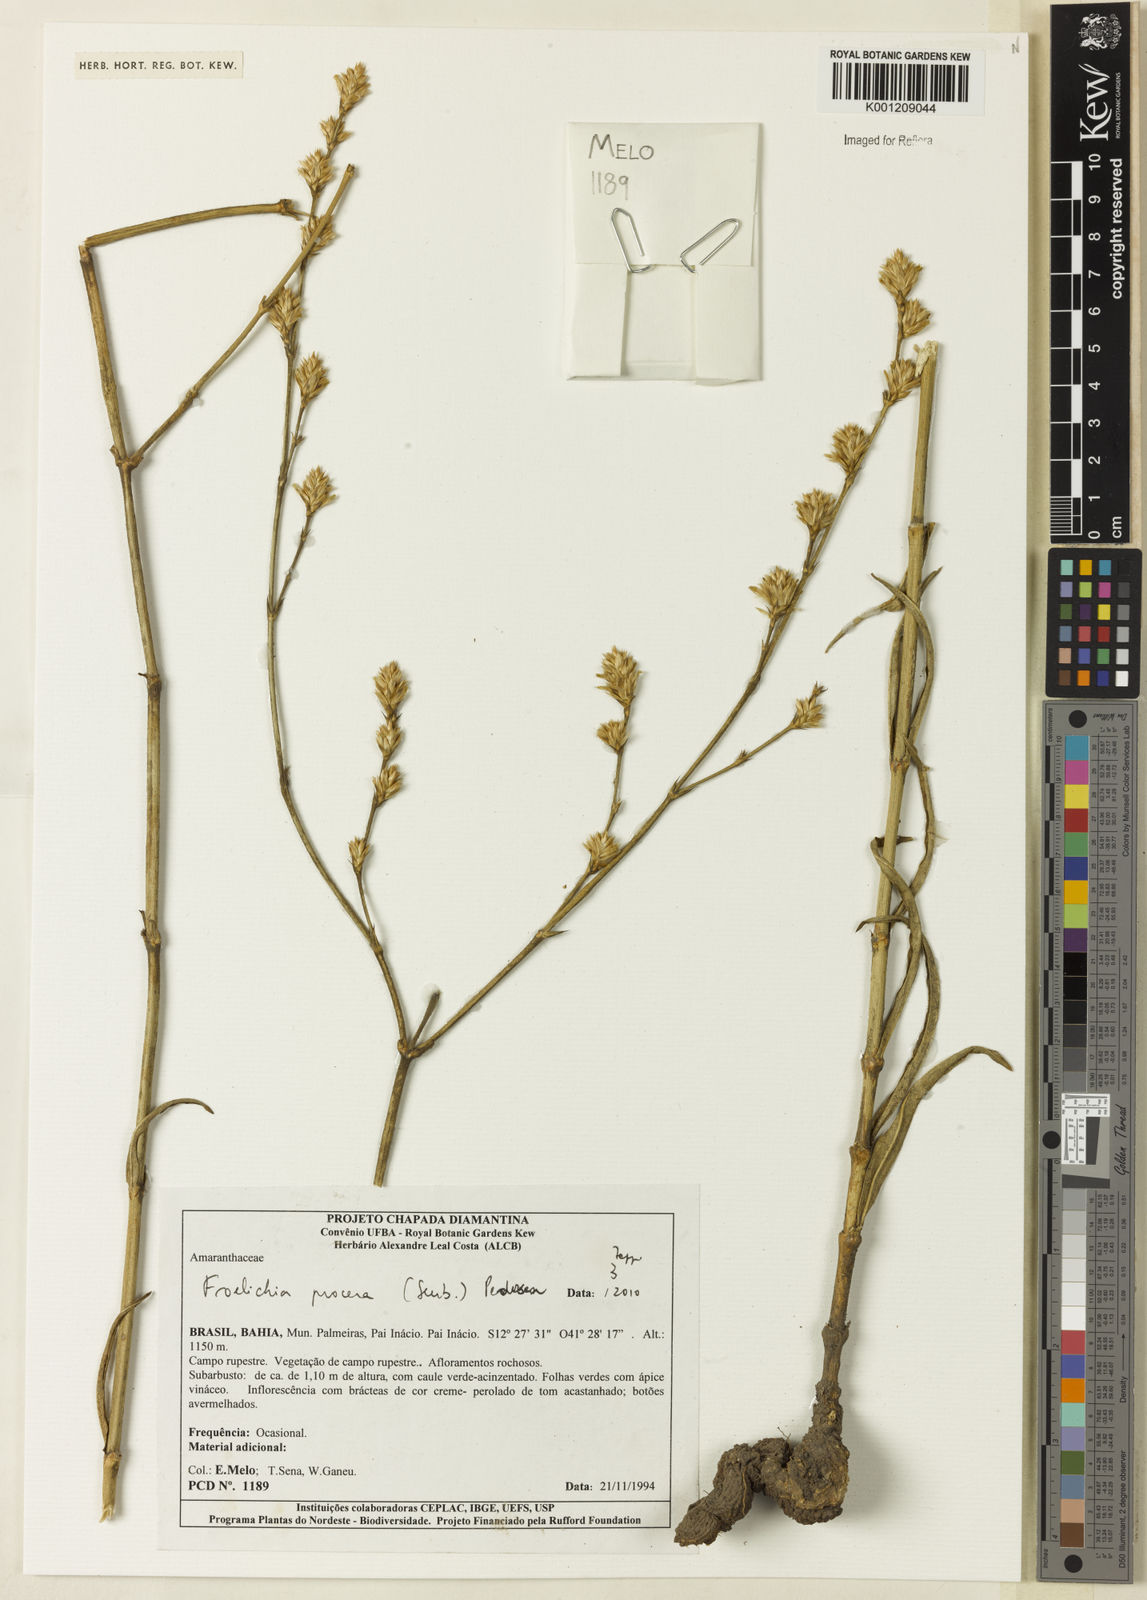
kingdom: Plantae
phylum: Tracheophyta
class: Magnoliopsida
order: Caryophyllales
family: Amaranthaceae
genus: Froelichia
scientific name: Froelichia procera
